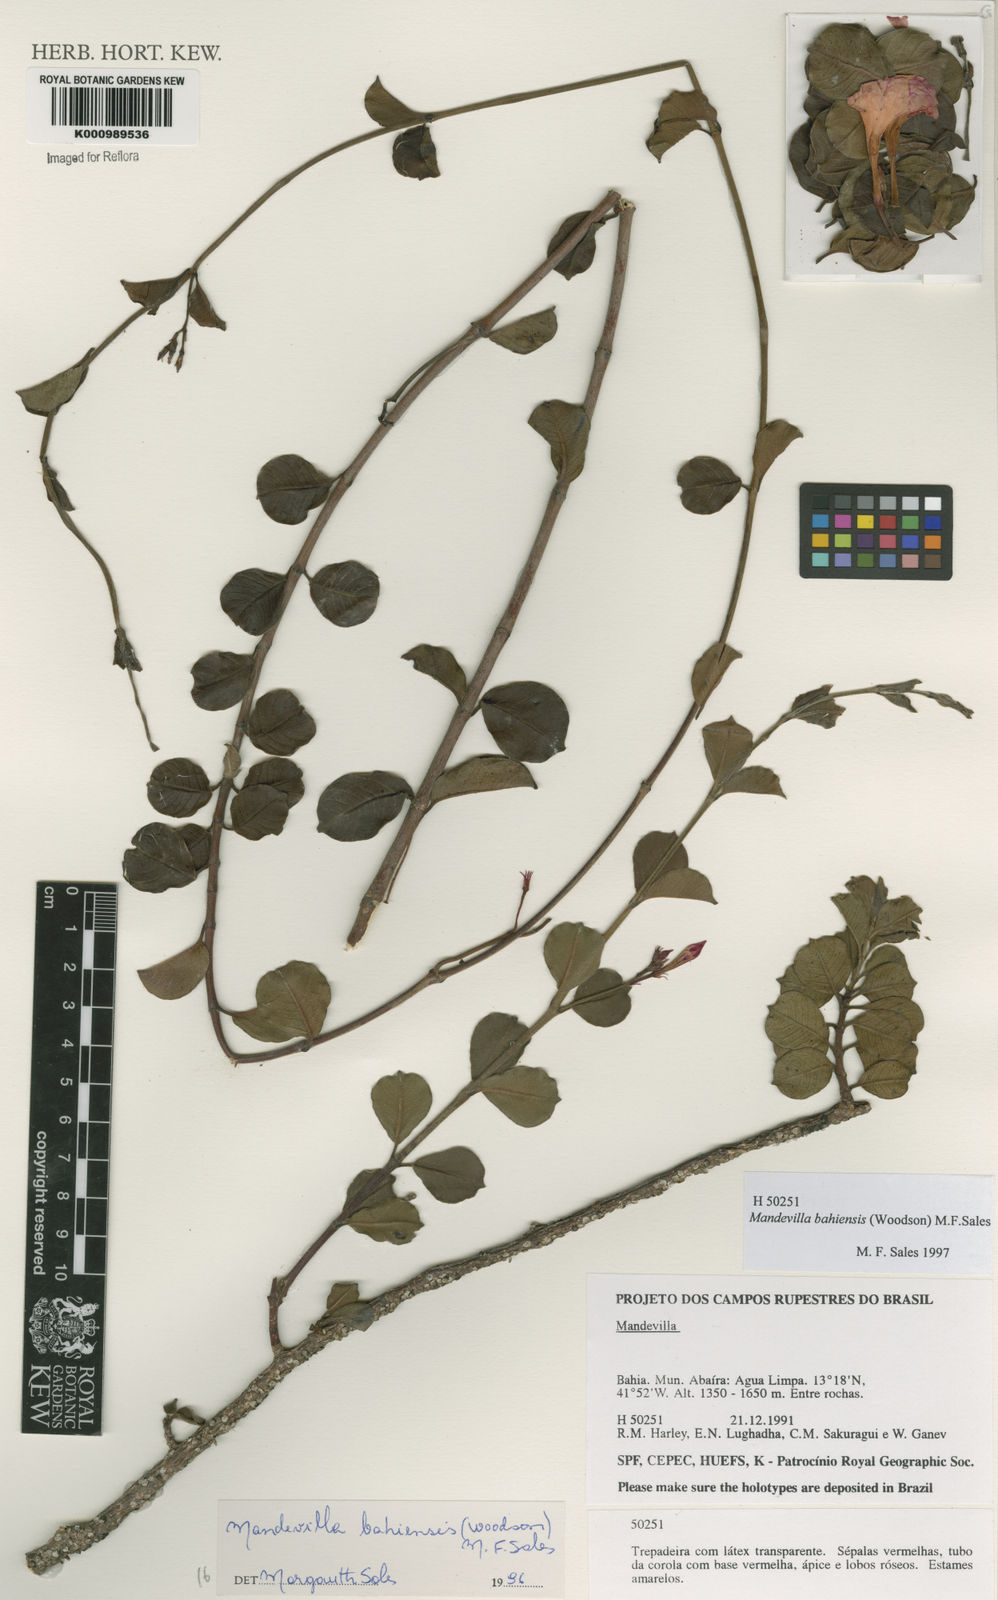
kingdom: Plantae
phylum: Tracheophyta
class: Magnoliopsida
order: Gentianales
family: Apocynaceae
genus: Mandevilla
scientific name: Mandevilla bahiensis
